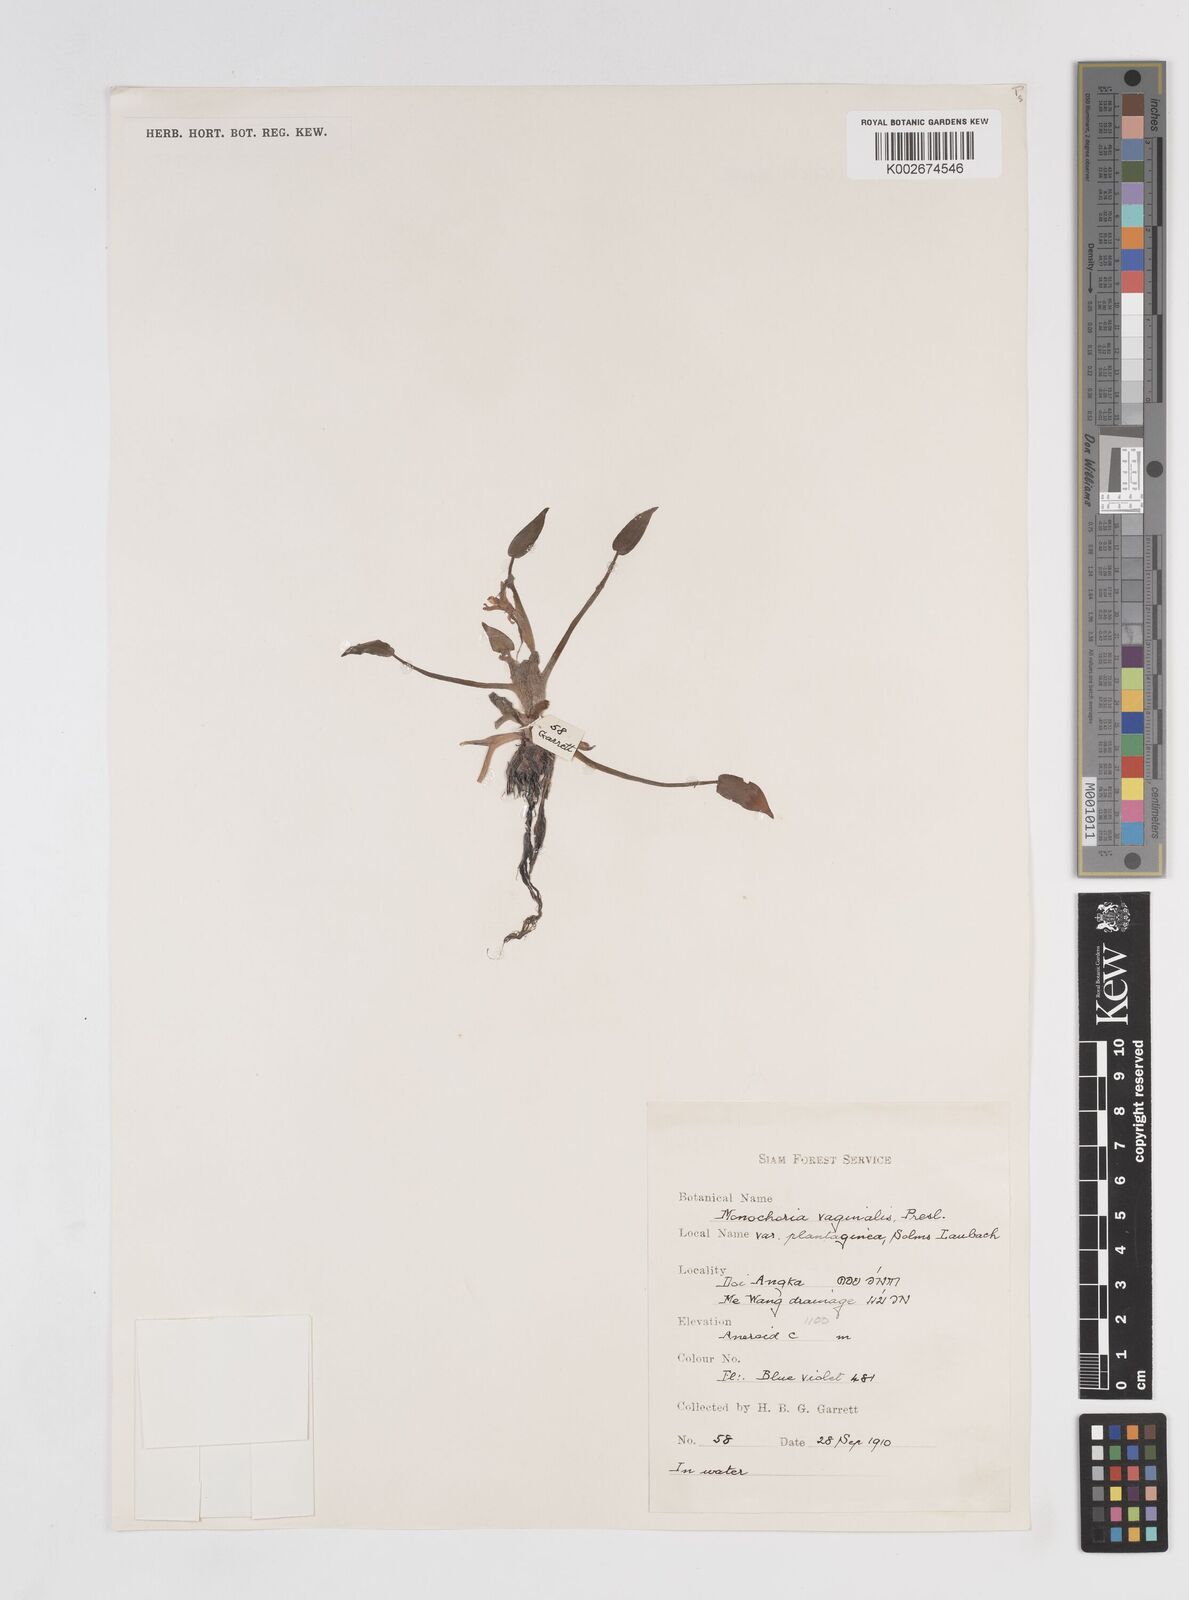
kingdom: Plantae
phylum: Tracheophyta
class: Liliopsida
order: Commelinales
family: Pontederiaceae
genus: Pontederia
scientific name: Pontederia vaginalis
